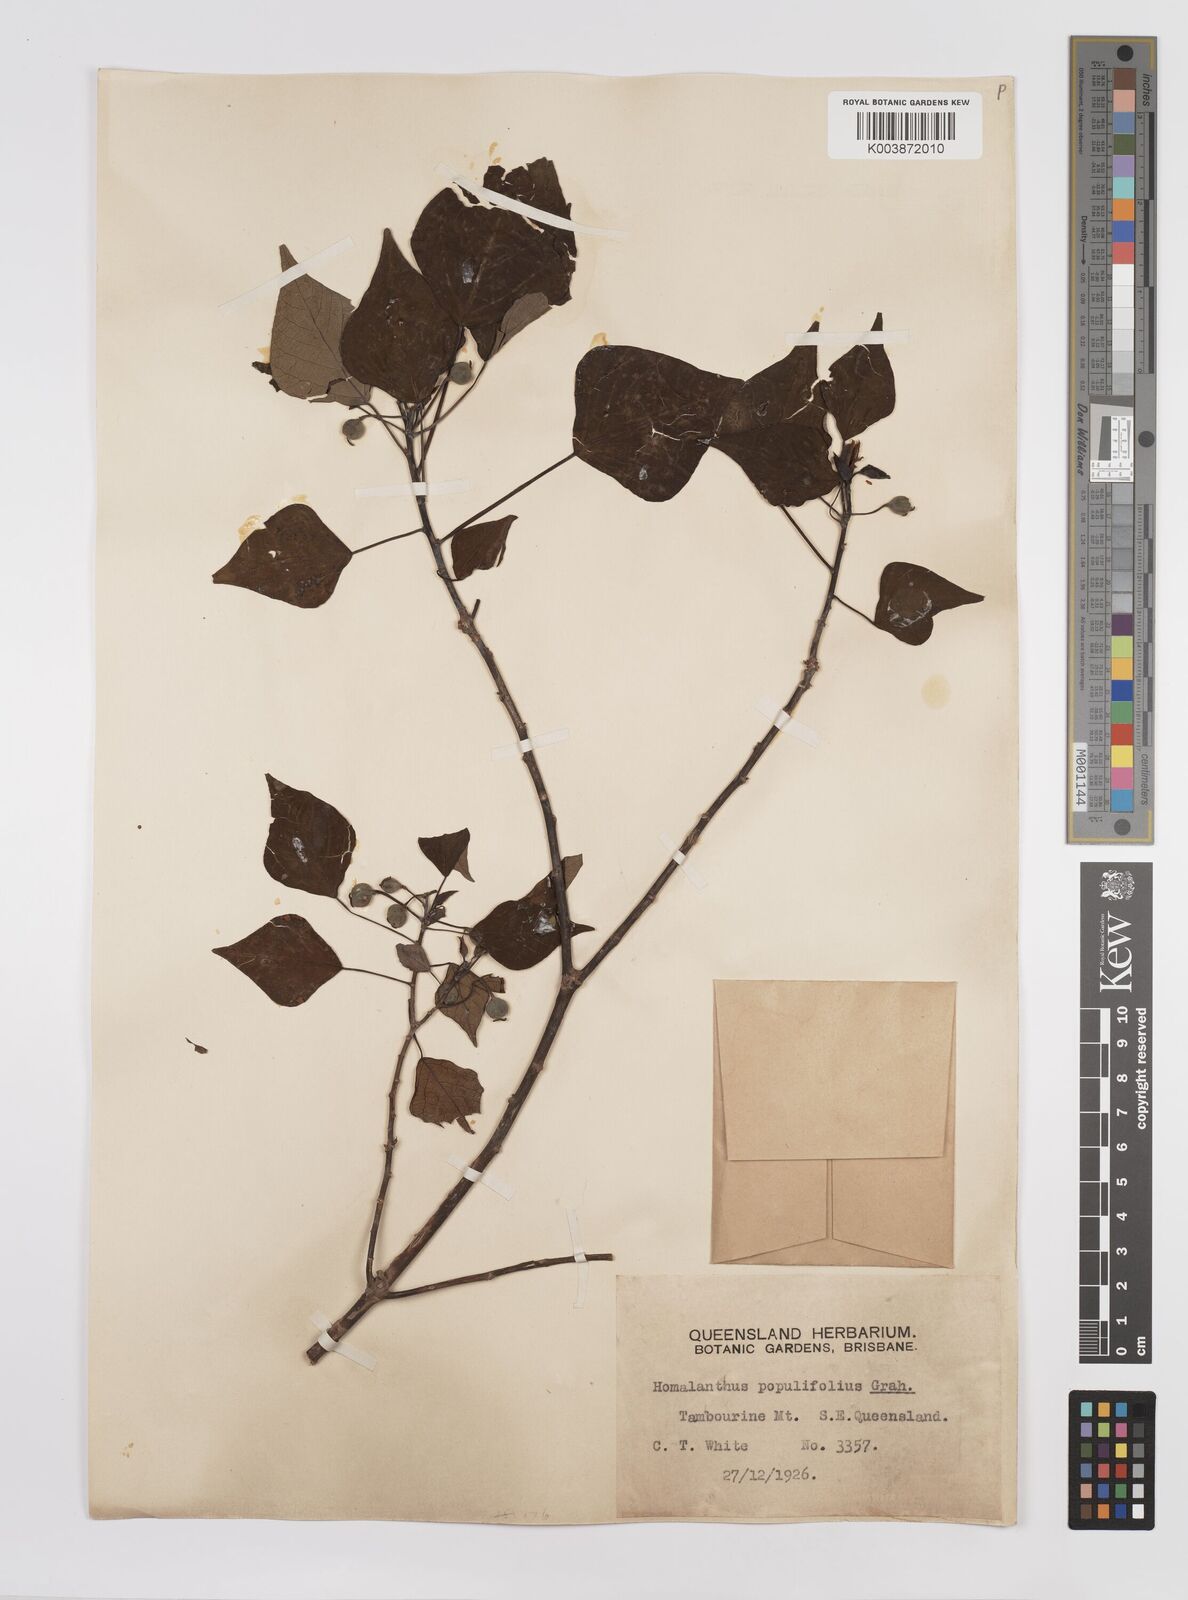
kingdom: Plantae
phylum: Tracheophyta
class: Magnoliopsida
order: Malpighiales
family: Euphorbiaceae
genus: Homalanthus
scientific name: Homalanthus populifolius
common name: Queensland poplar
